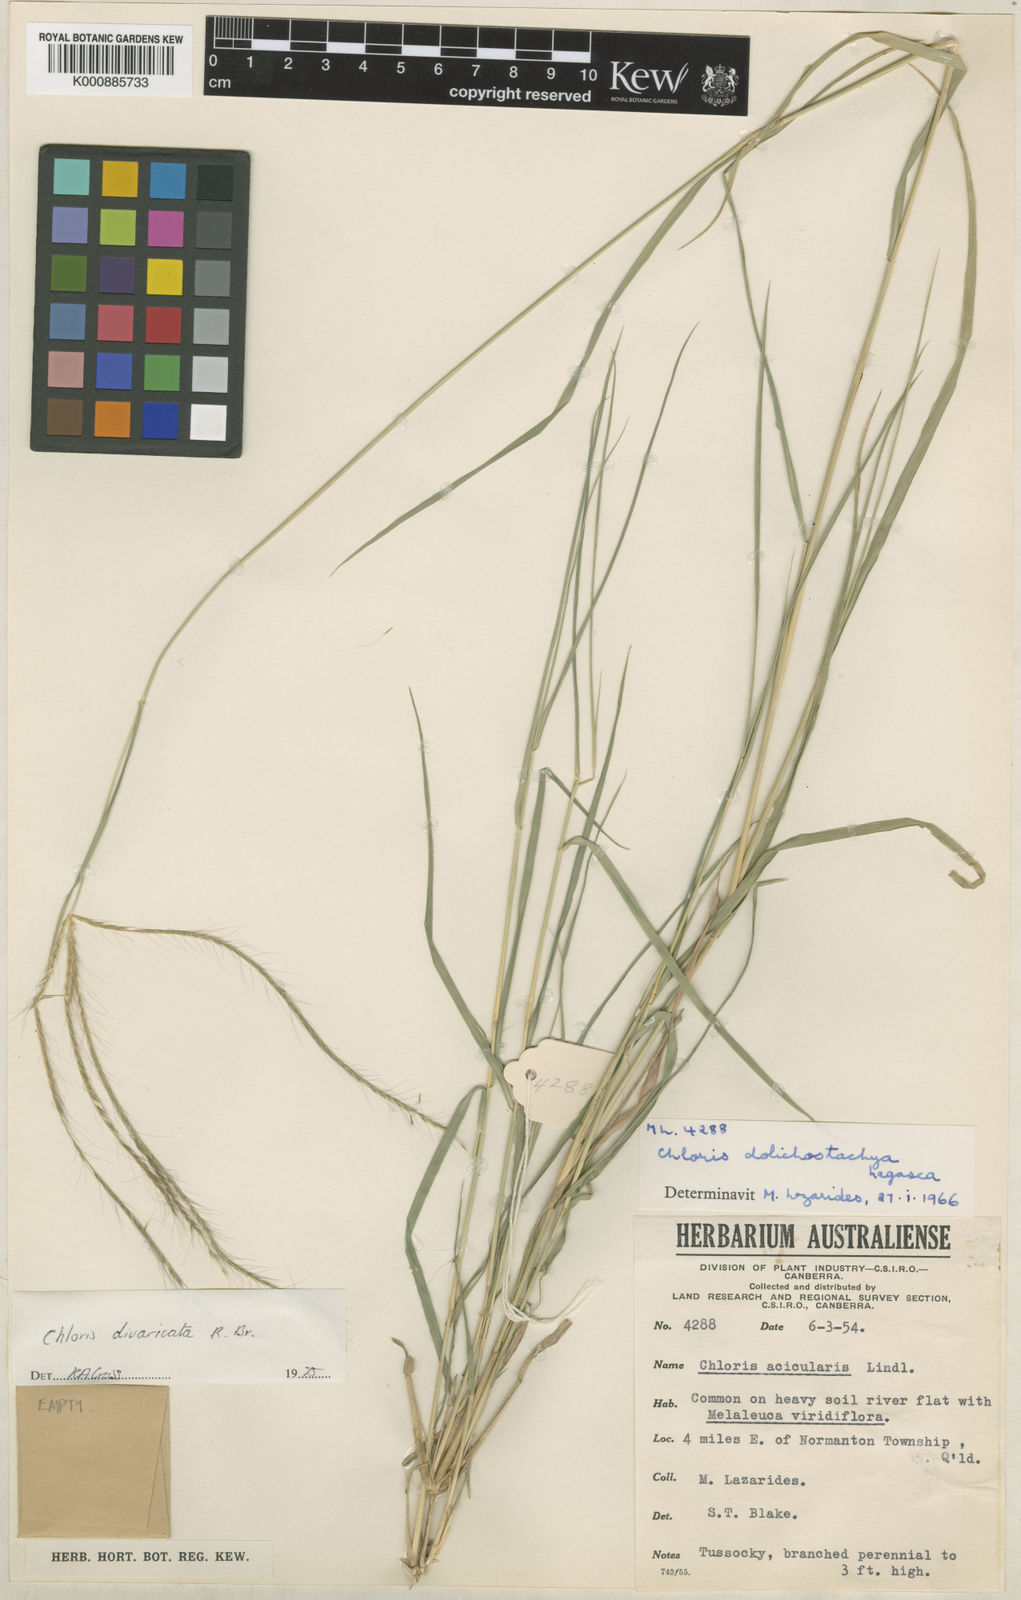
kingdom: Plantae
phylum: Tracheophyta
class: Liliopsida
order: Poales
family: Poaceae
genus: Enteropogon
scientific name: Enteropogon minutus
